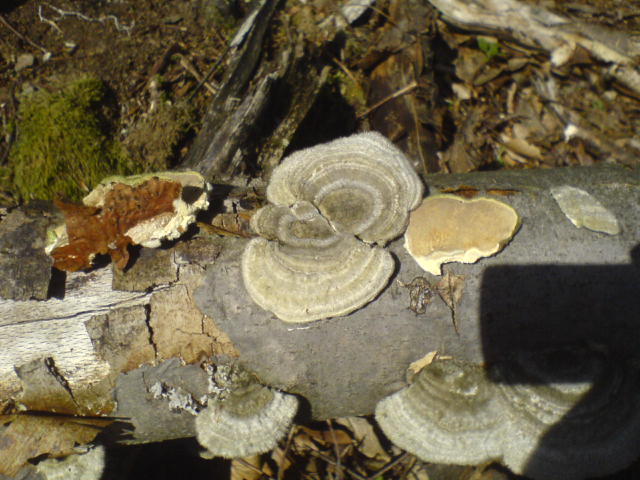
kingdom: Fungi
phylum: Basidiomycota
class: Agaricomycetes
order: Polyporales
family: Polyporaceae
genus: Trametes
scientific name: Trametes hirsuta
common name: håret læderporesvamp
